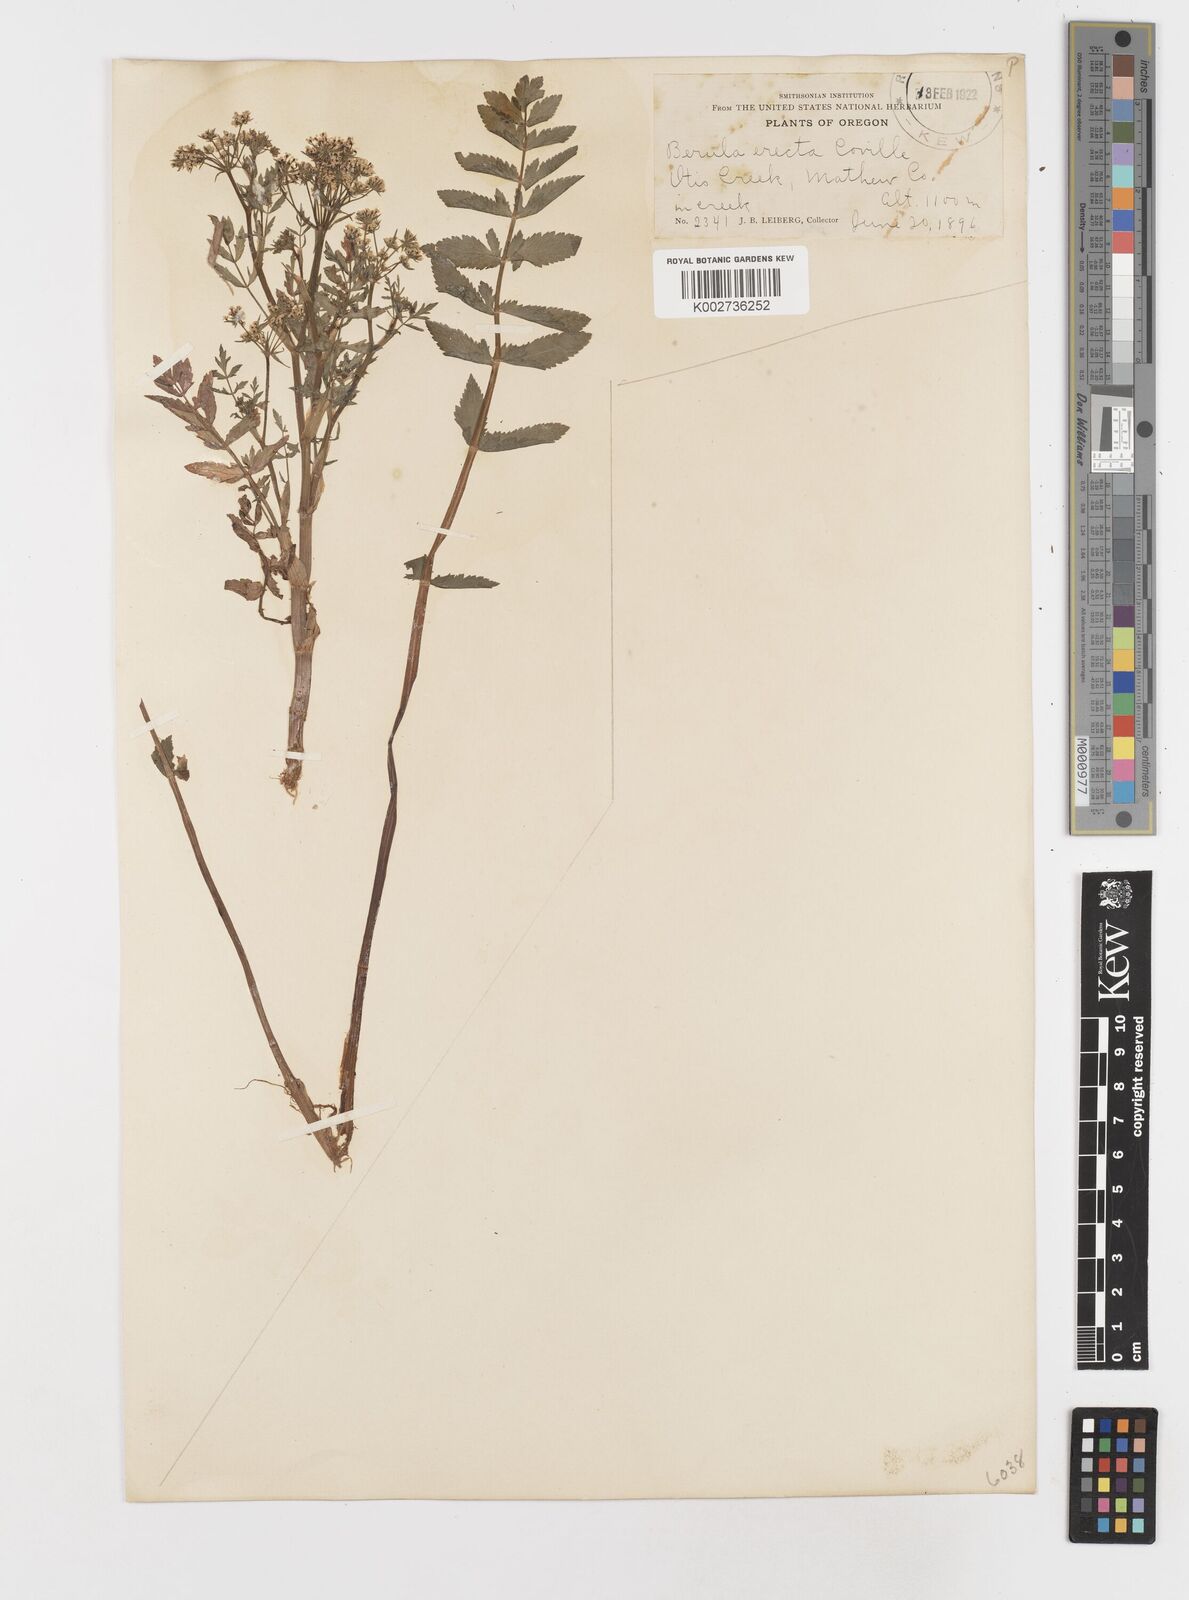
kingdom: Plantae
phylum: Tracheophyta
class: Magnoliopsida
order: Apiales
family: Apiaceae
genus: Berula
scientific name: Berula erecta
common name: Lesser water-parsnip
